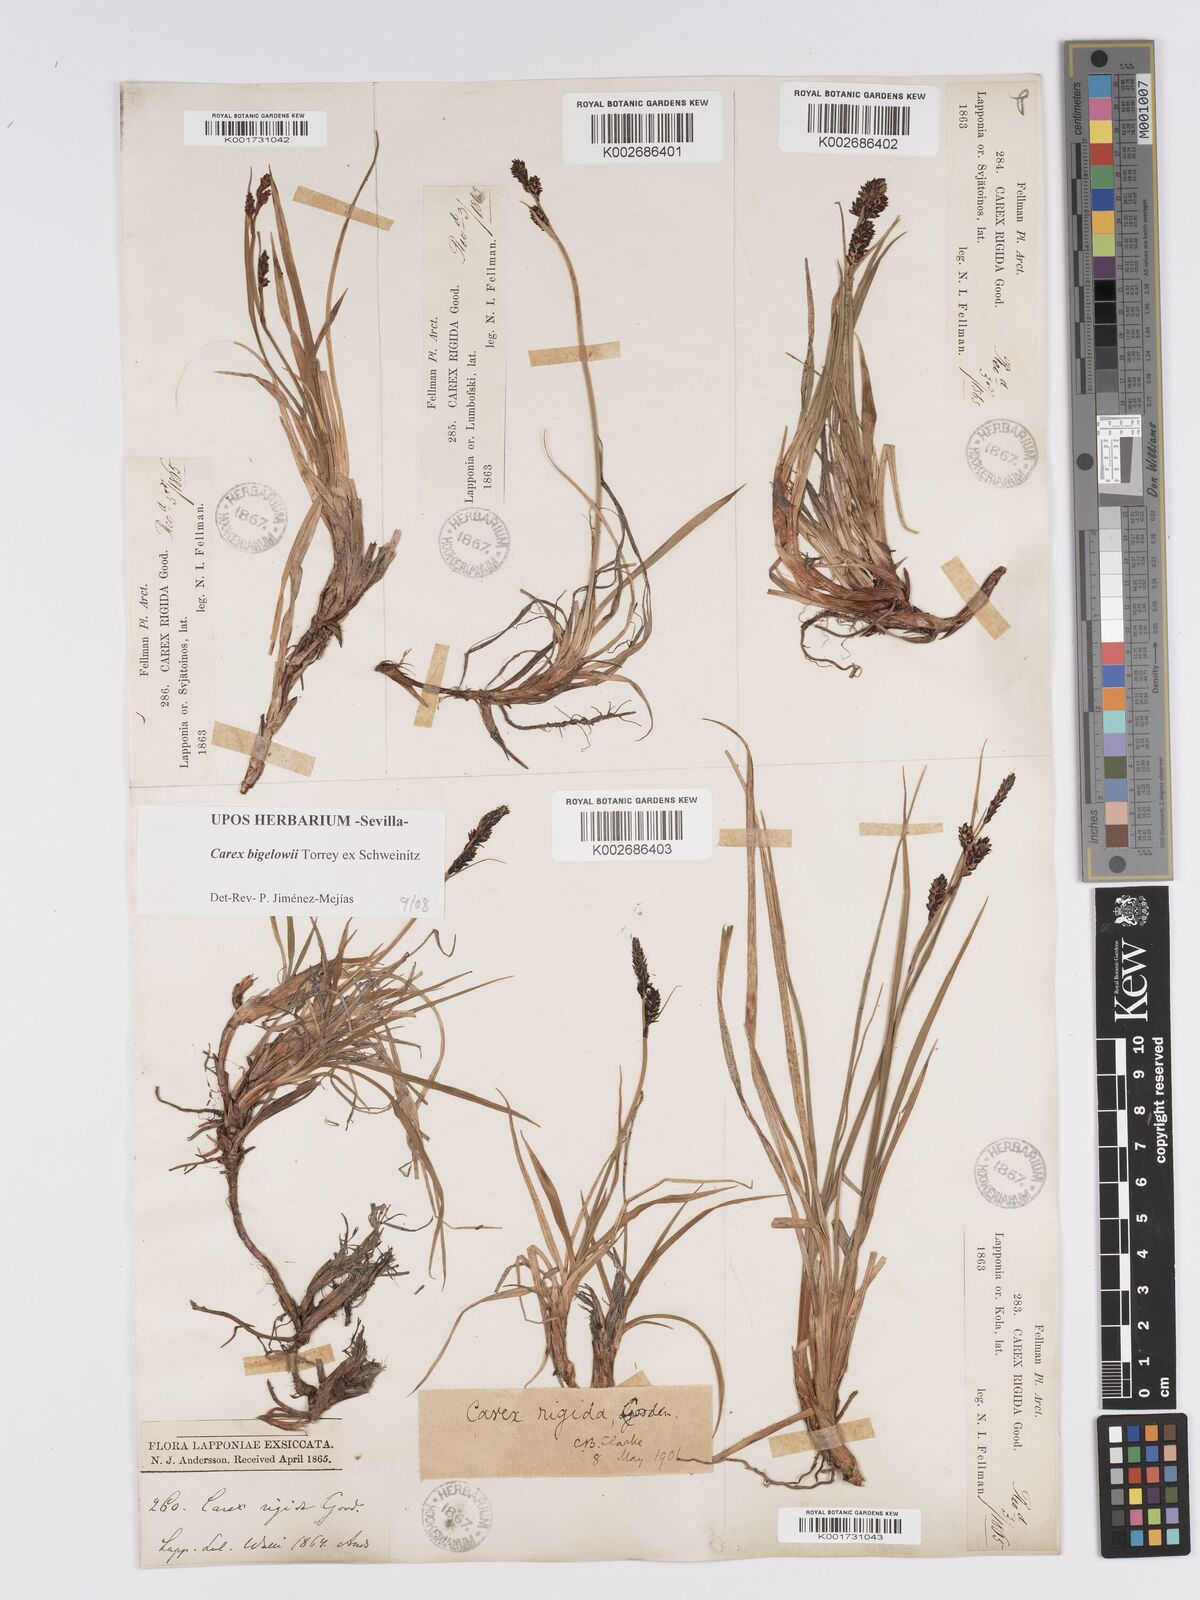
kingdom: Plantae
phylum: Tracheophyta
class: Liliopsida
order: Poales
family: Cyperaceae
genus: Carex
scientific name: Carex bigelowii
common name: Stiff sedge
